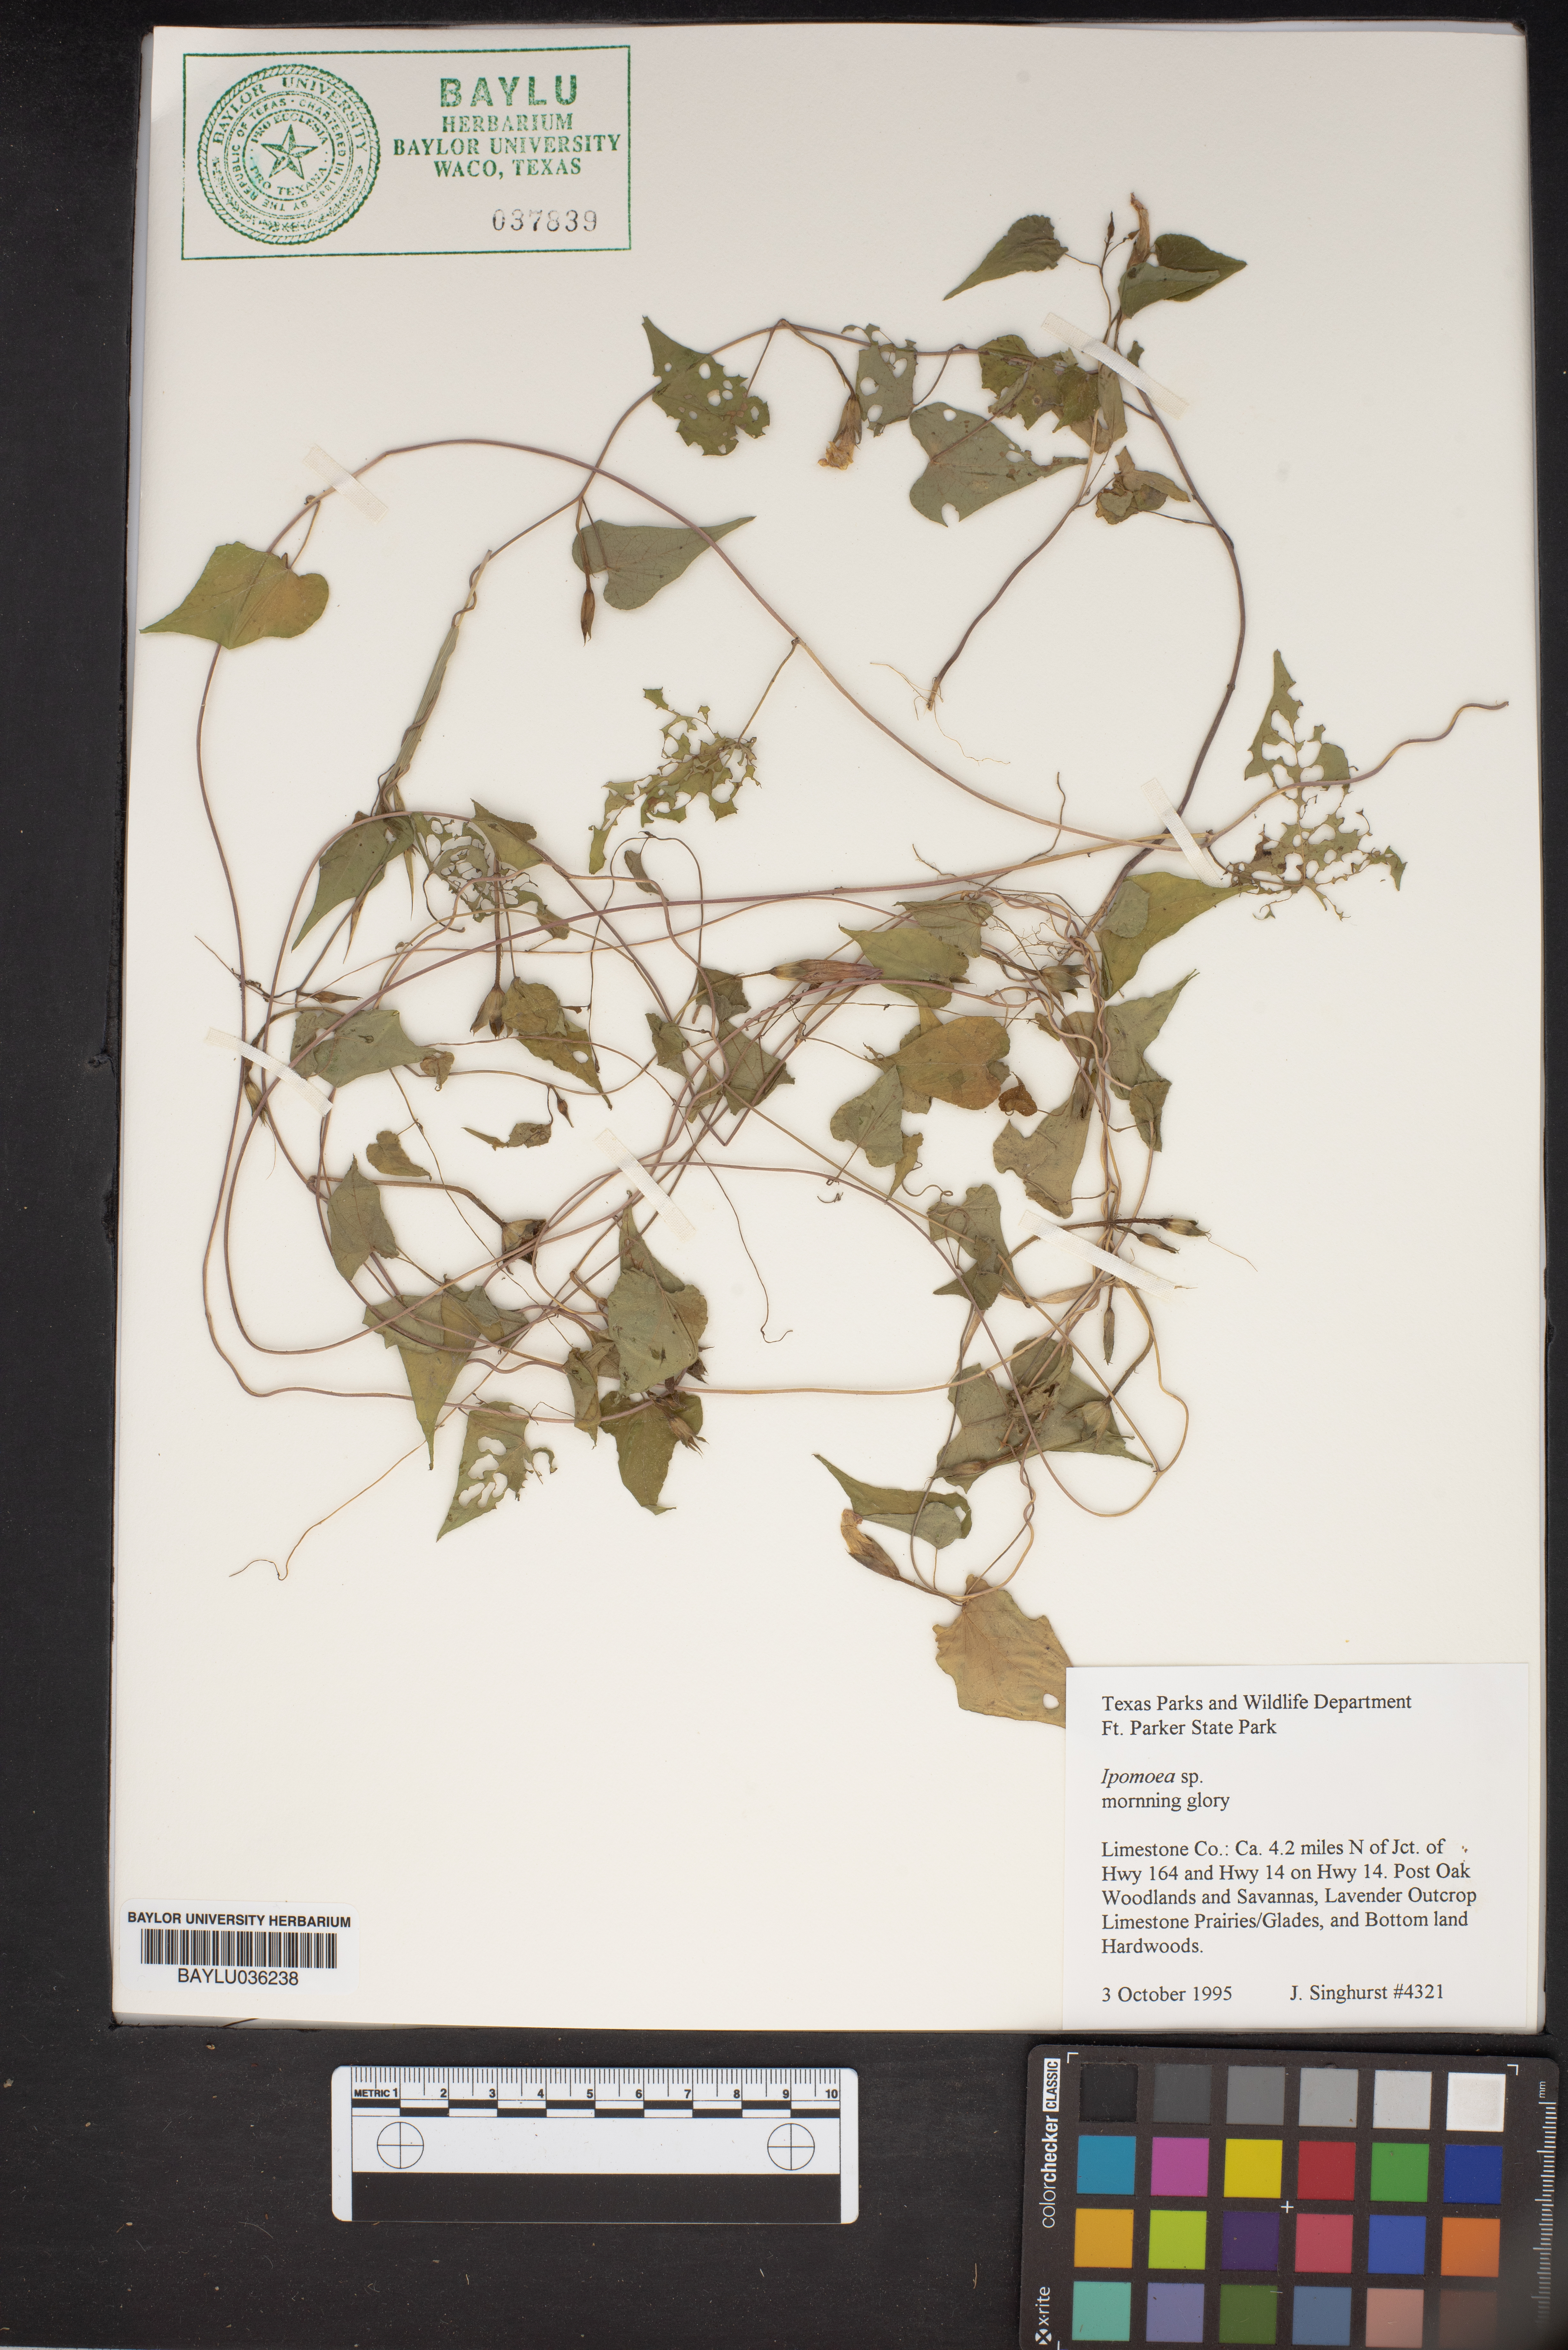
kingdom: Plantae
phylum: Tracheophyta
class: Magnoliopsida
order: Solanales
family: Convolvulaceae
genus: Ipomoea
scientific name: Ipomoea
